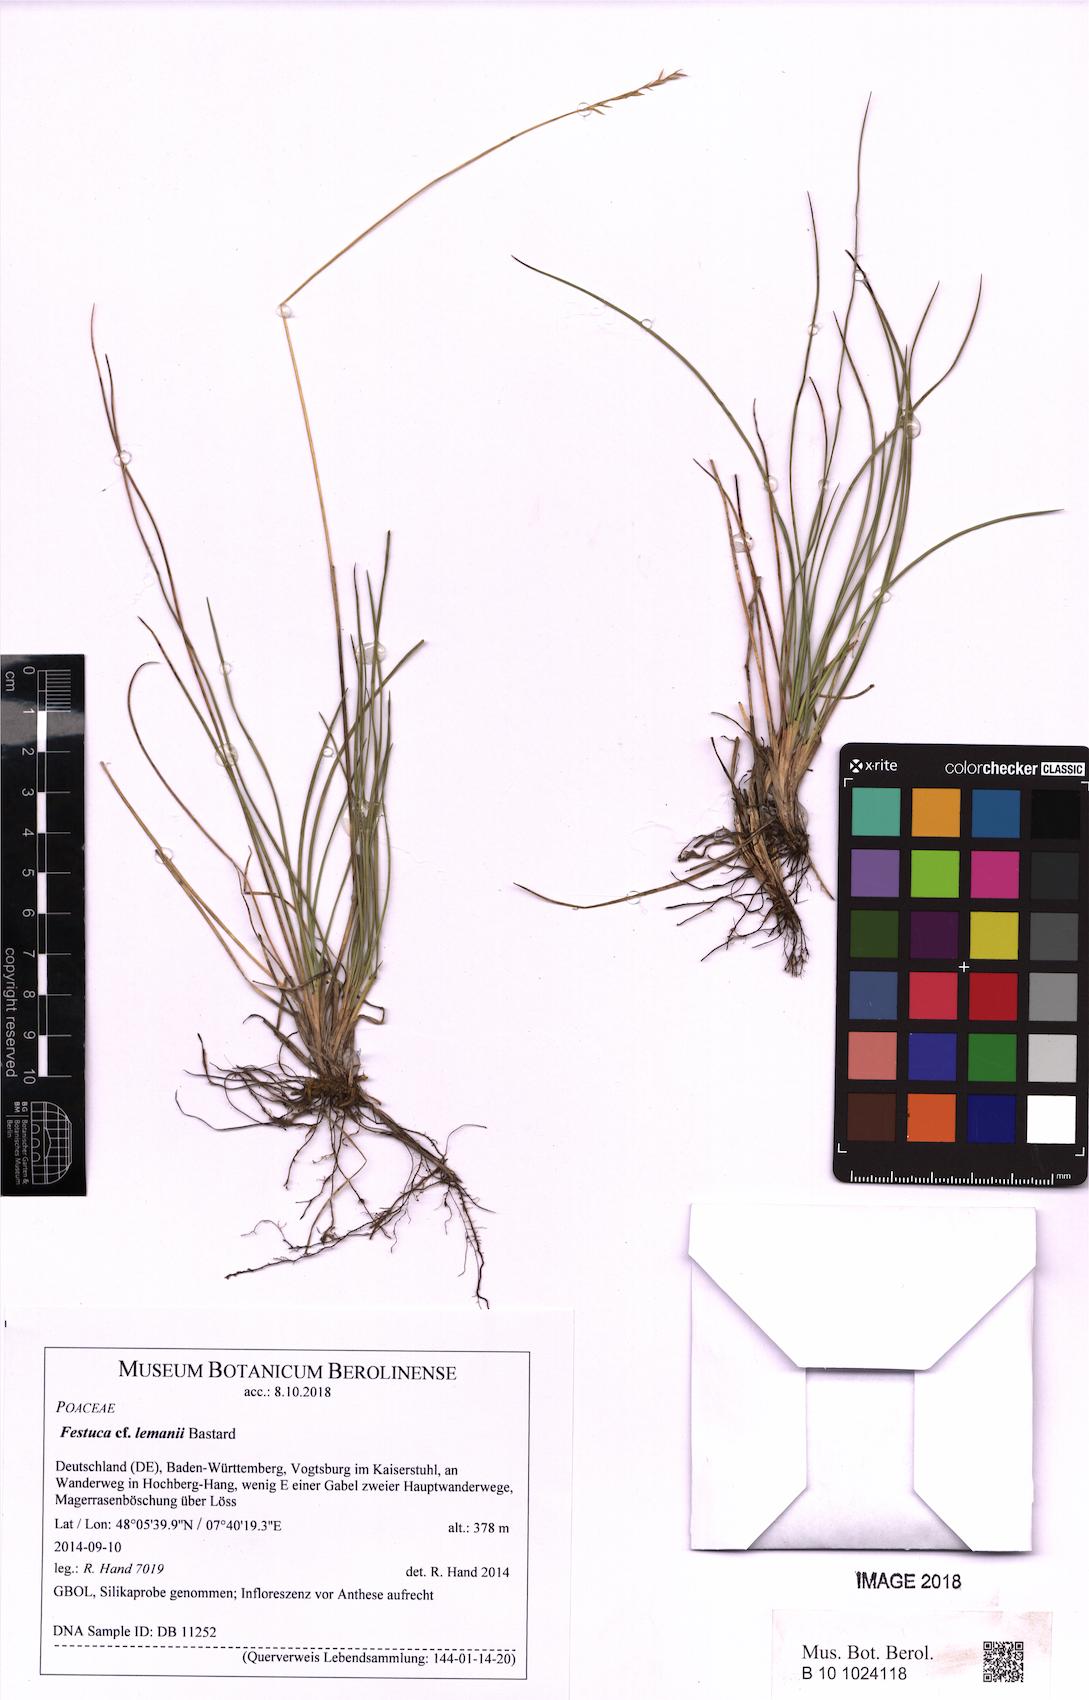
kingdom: Plantae
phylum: Tracheophyta
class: Liliopsida
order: Poales
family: Poaceae
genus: Festuca
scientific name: Festuca lemanii
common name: Confused fescue
